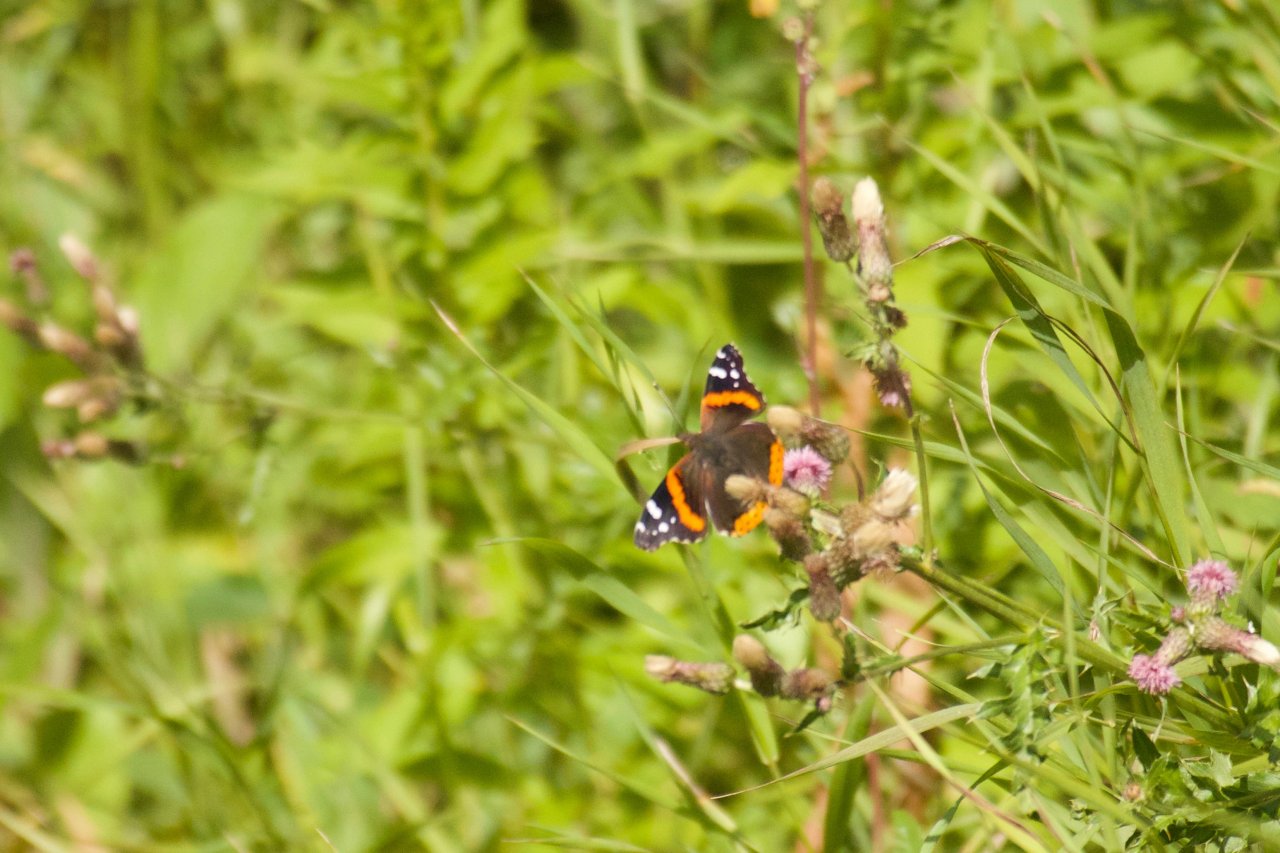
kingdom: Animalia
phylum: Arthropoda
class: Insecta
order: Lepidoptera
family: Nymphalidae
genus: Vanessa
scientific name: Vanessa atalanta
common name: Red Admiral
